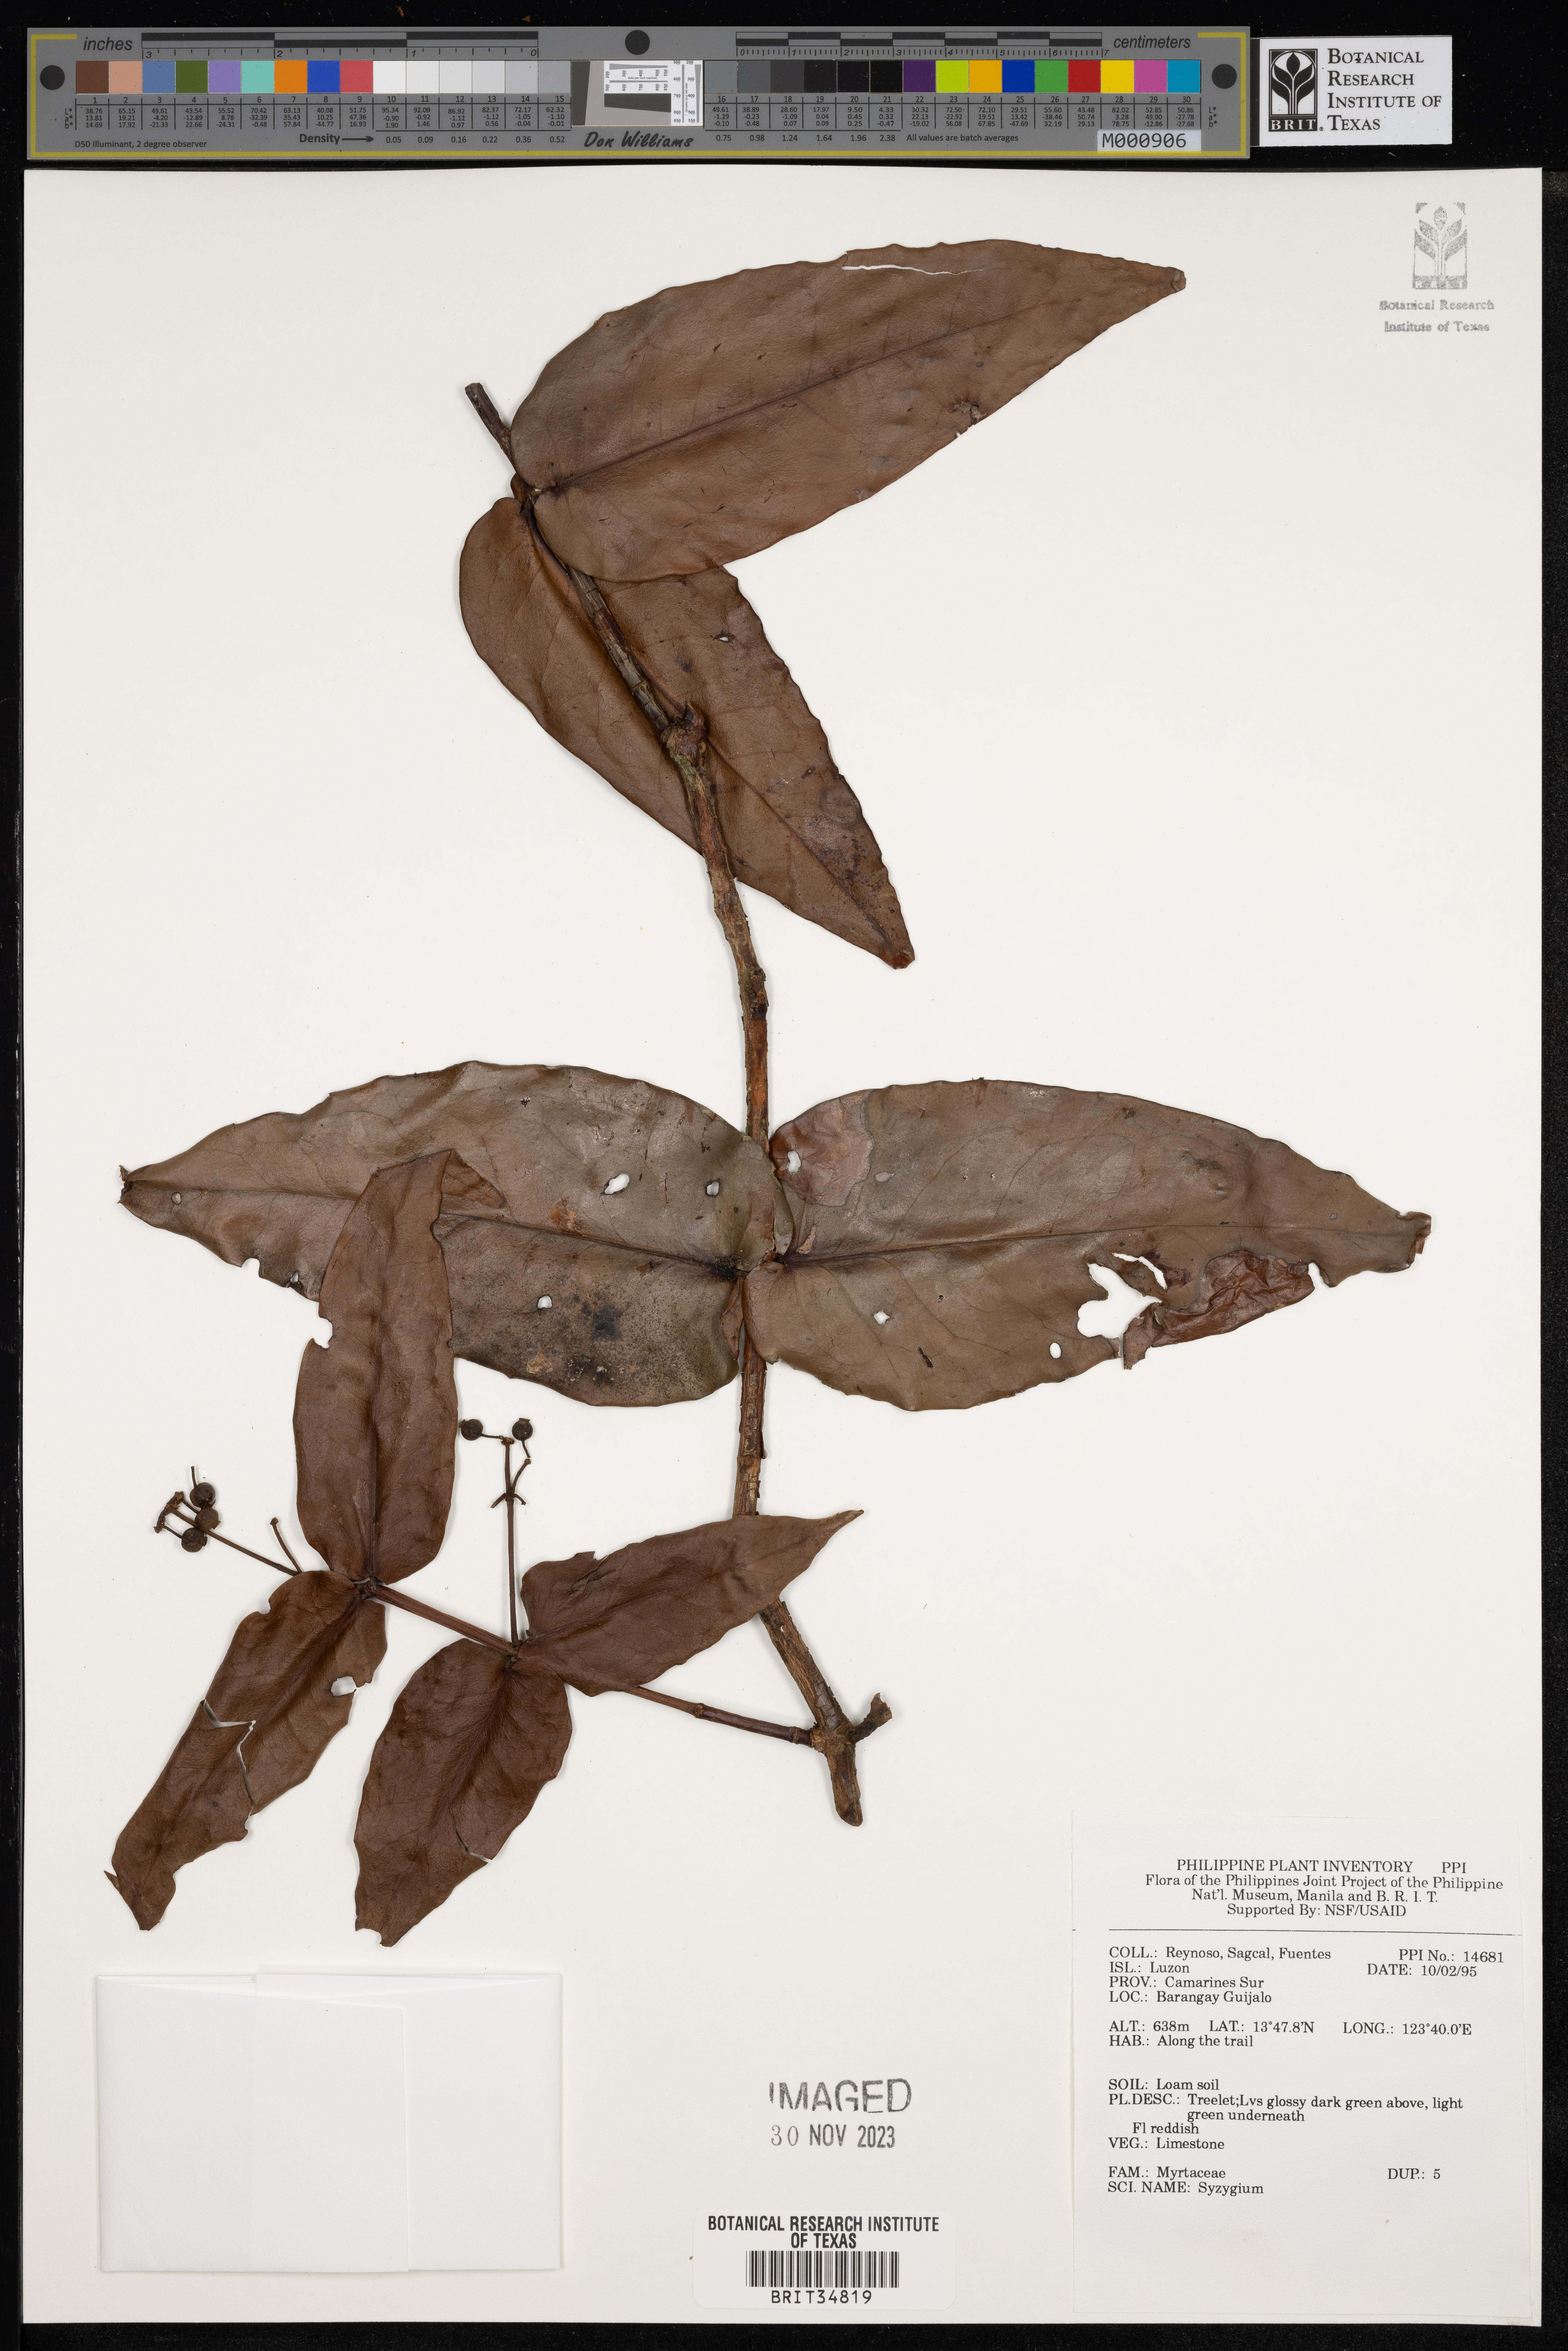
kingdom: Plantae
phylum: Tracheophyta
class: Magnoliopsida
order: Myrtales
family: Myrtaceae
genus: Syzygium
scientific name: Syzygium
